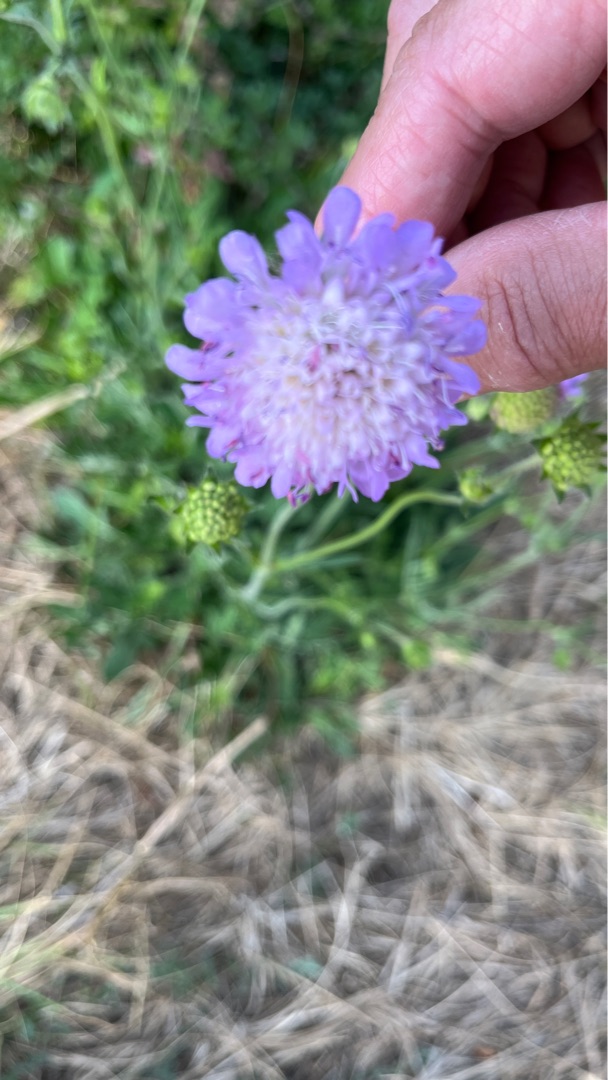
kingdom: Plantae
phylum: Tracheophyta
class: Magnoliopsida
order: Dipsacales
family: Caprifoliaceae
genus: Knautia
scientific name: Knautia arvensis
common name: Blåhat
